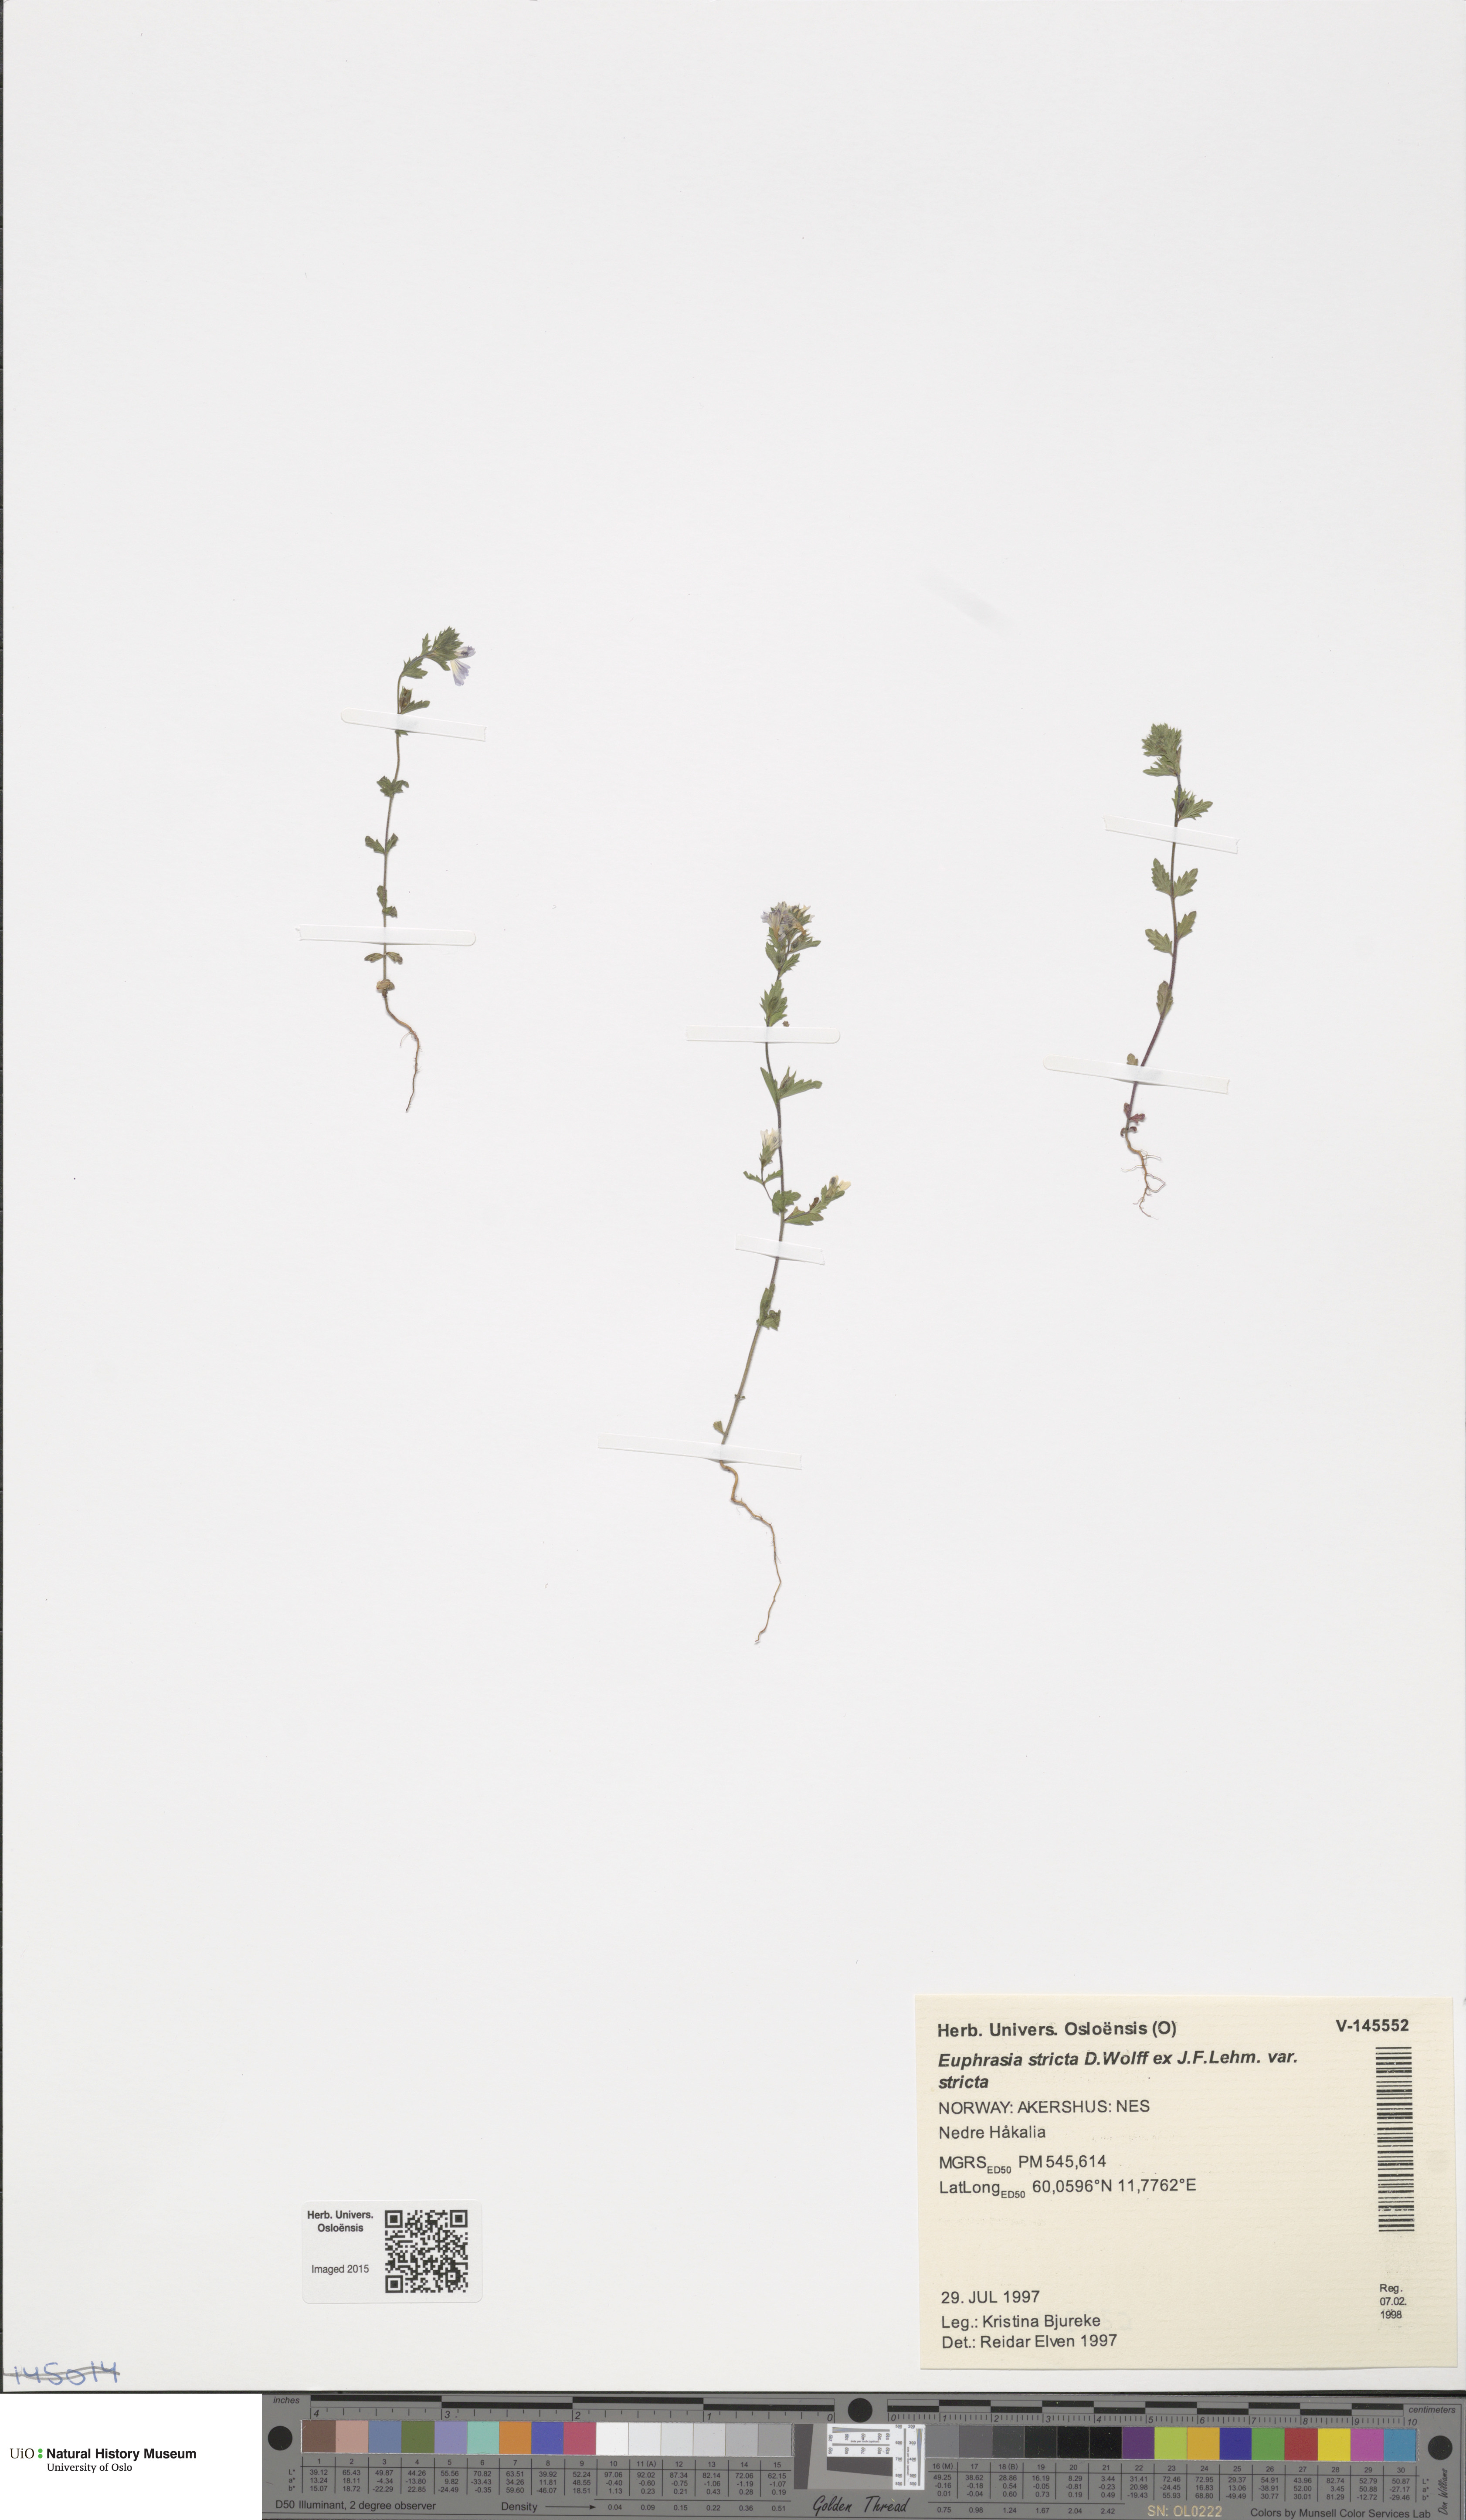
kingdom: Plantae
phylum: Tracheophyta
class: Magnoliopsida
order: Lamiales
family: Orobanchaceae
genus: Euphrasia
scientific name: Euphrasia stricta
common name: Drug eyebright
